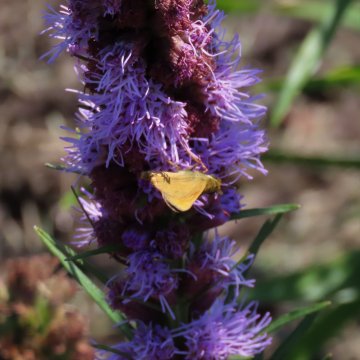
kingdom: Animalia
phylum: Arthropoda
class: Insecta
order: Lepidoptera
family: Hesperiidae
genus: Atalopedes
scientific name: Atalopedes campestris
